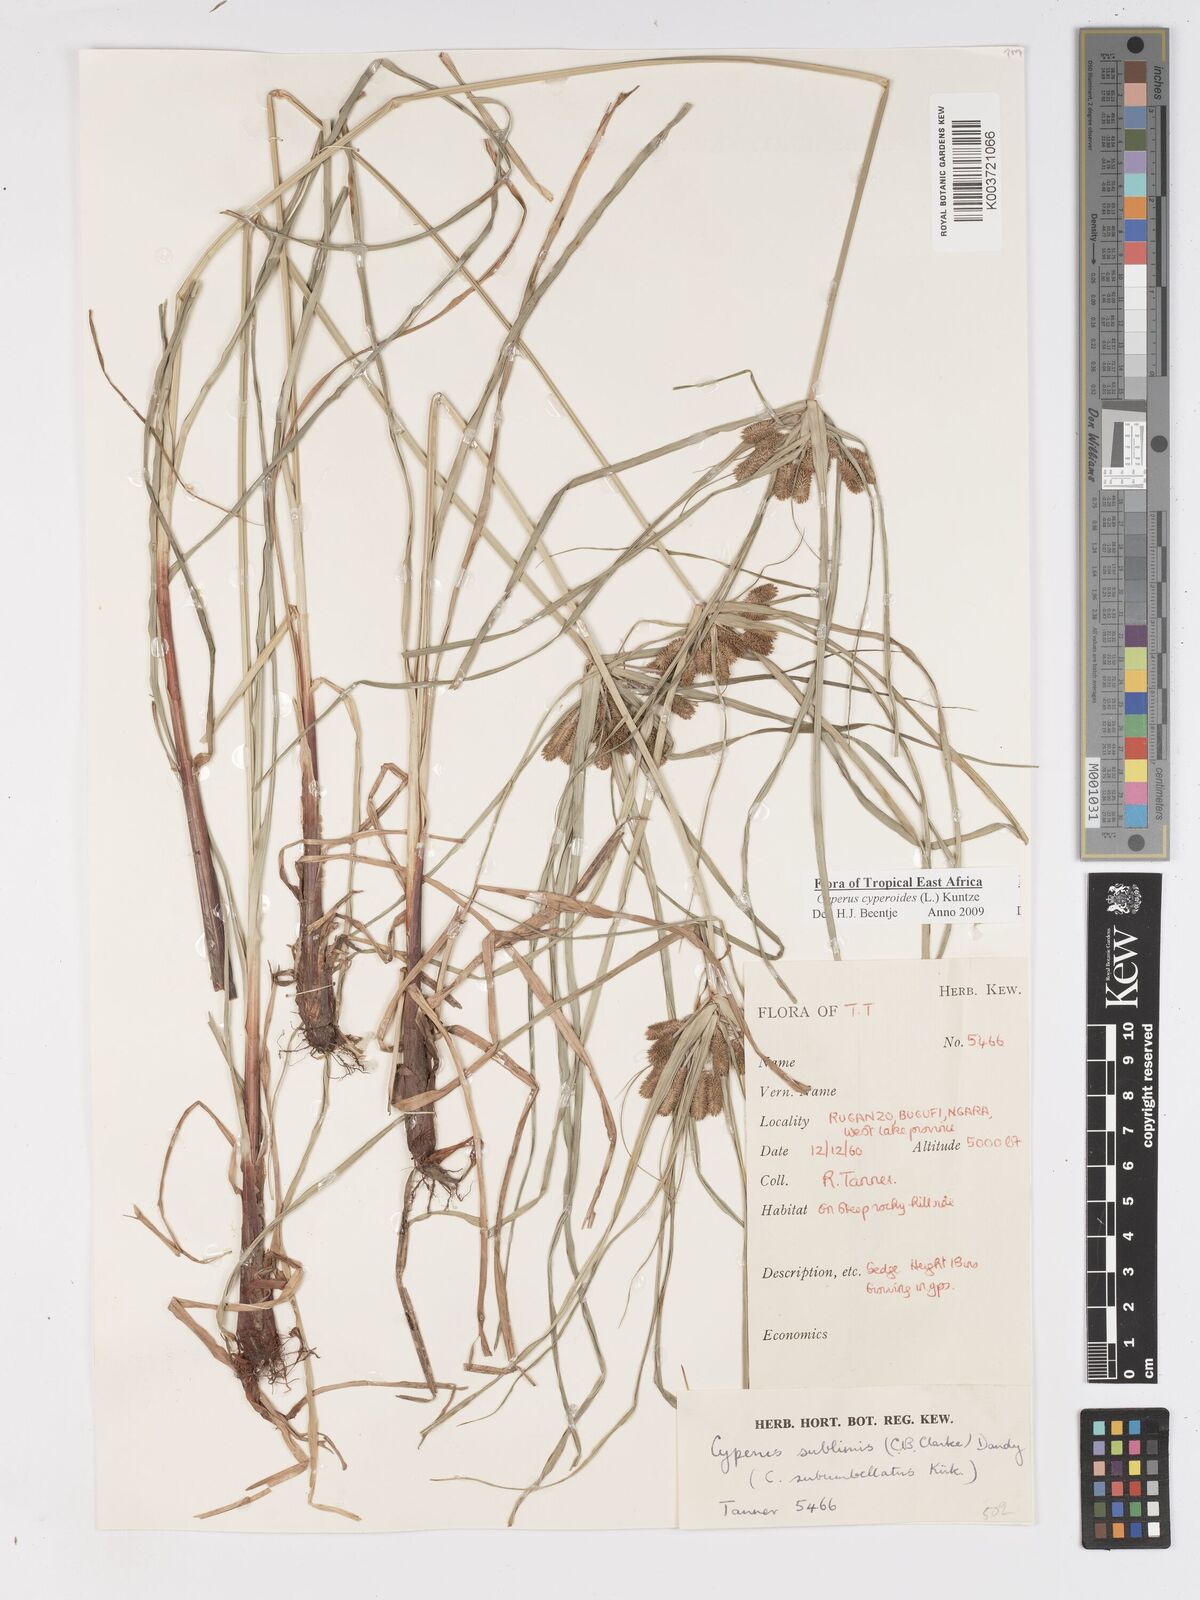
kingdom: Plantae
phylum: Tracheophyta
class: Liliopsida
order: Poales
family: Cyperaceae
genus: Cyperus
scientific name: Cyperus cyperoides
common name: Pacific island flat sedge
